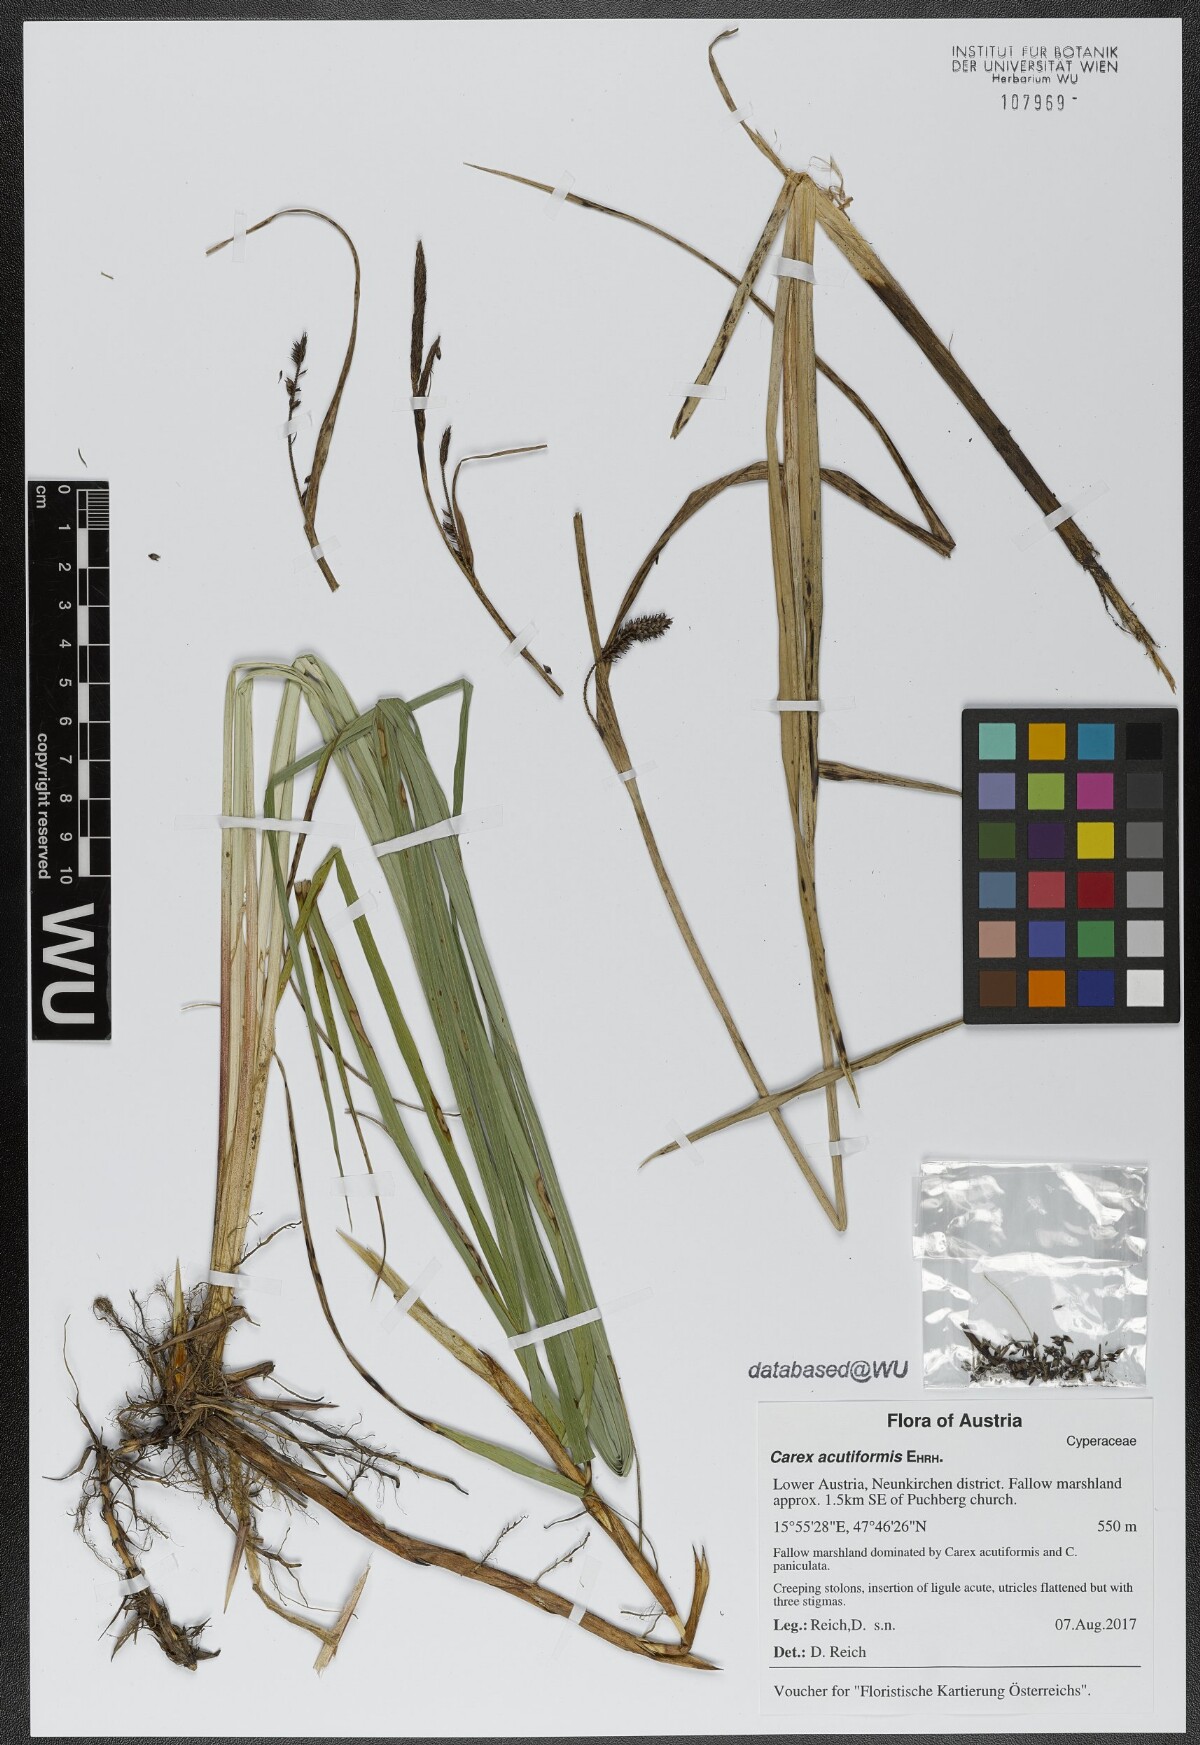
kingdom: Plantae
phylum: Tracheophyta
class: Liliopsida
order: Poales
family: Cyperaceae
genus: Carex
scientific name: Carex acutiformis
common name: Lesser pond-sedge
